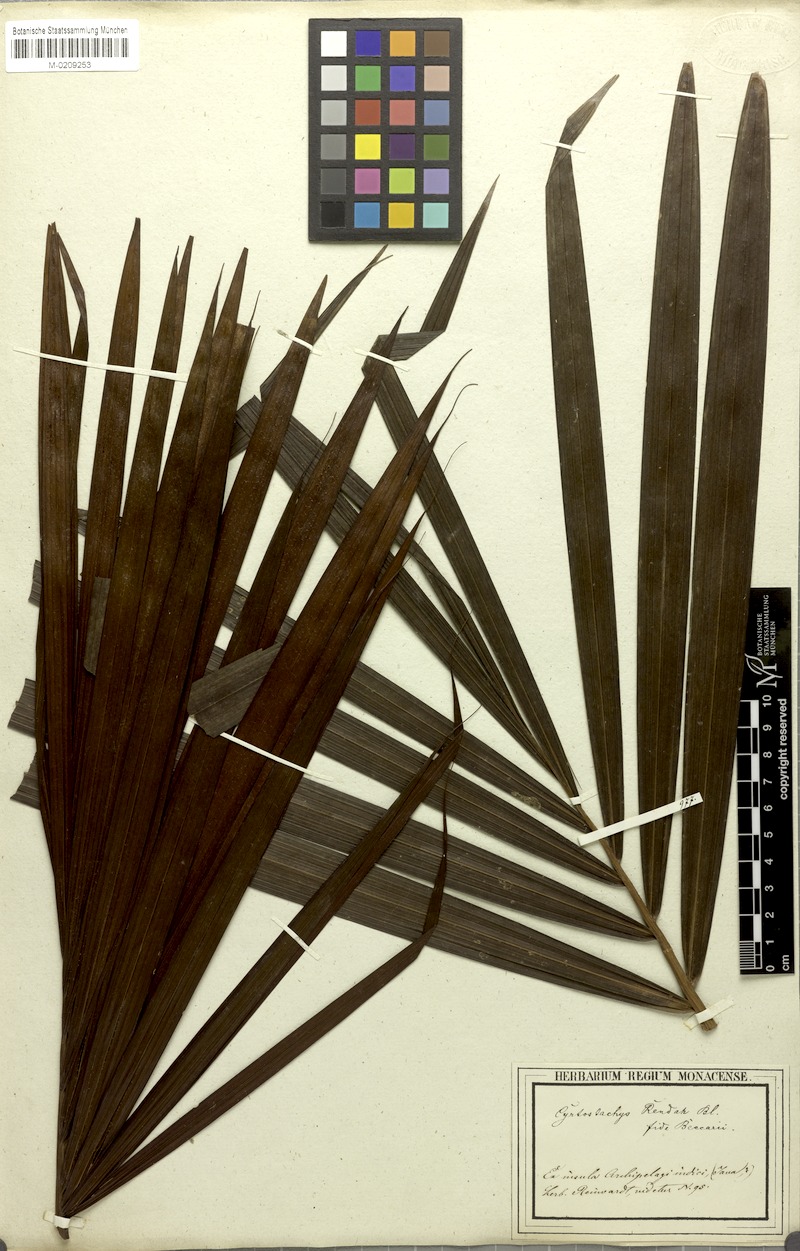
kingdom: Plantae
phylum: Tracheophyta
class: Liliopsida
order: Arecales
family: Arecaceae
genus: Cyrtostachys
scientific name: Cyrtostachys renda
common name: Lipstick palm
